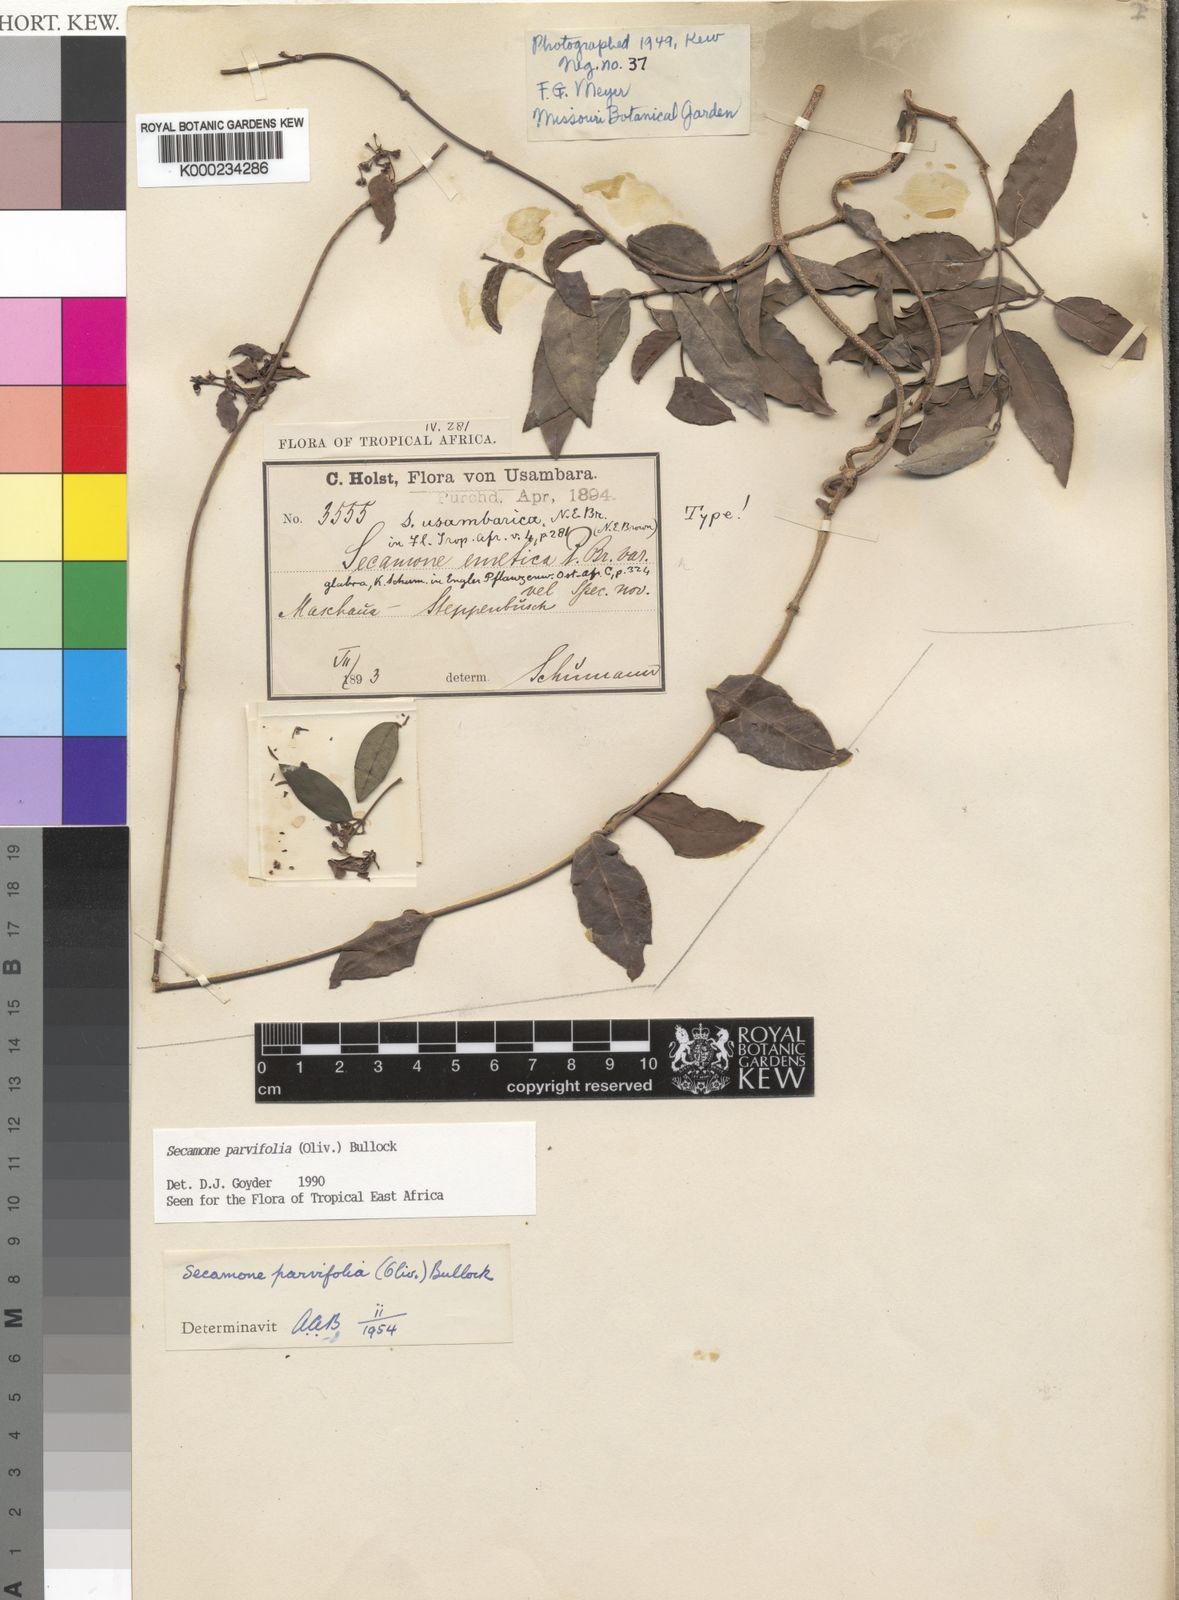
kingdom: Plantae
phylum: Tracheophyta
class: Magnoliopsida
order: Gentianales
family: Apocynaceae
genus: Secamone
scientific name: Secamone schweinfurthii
